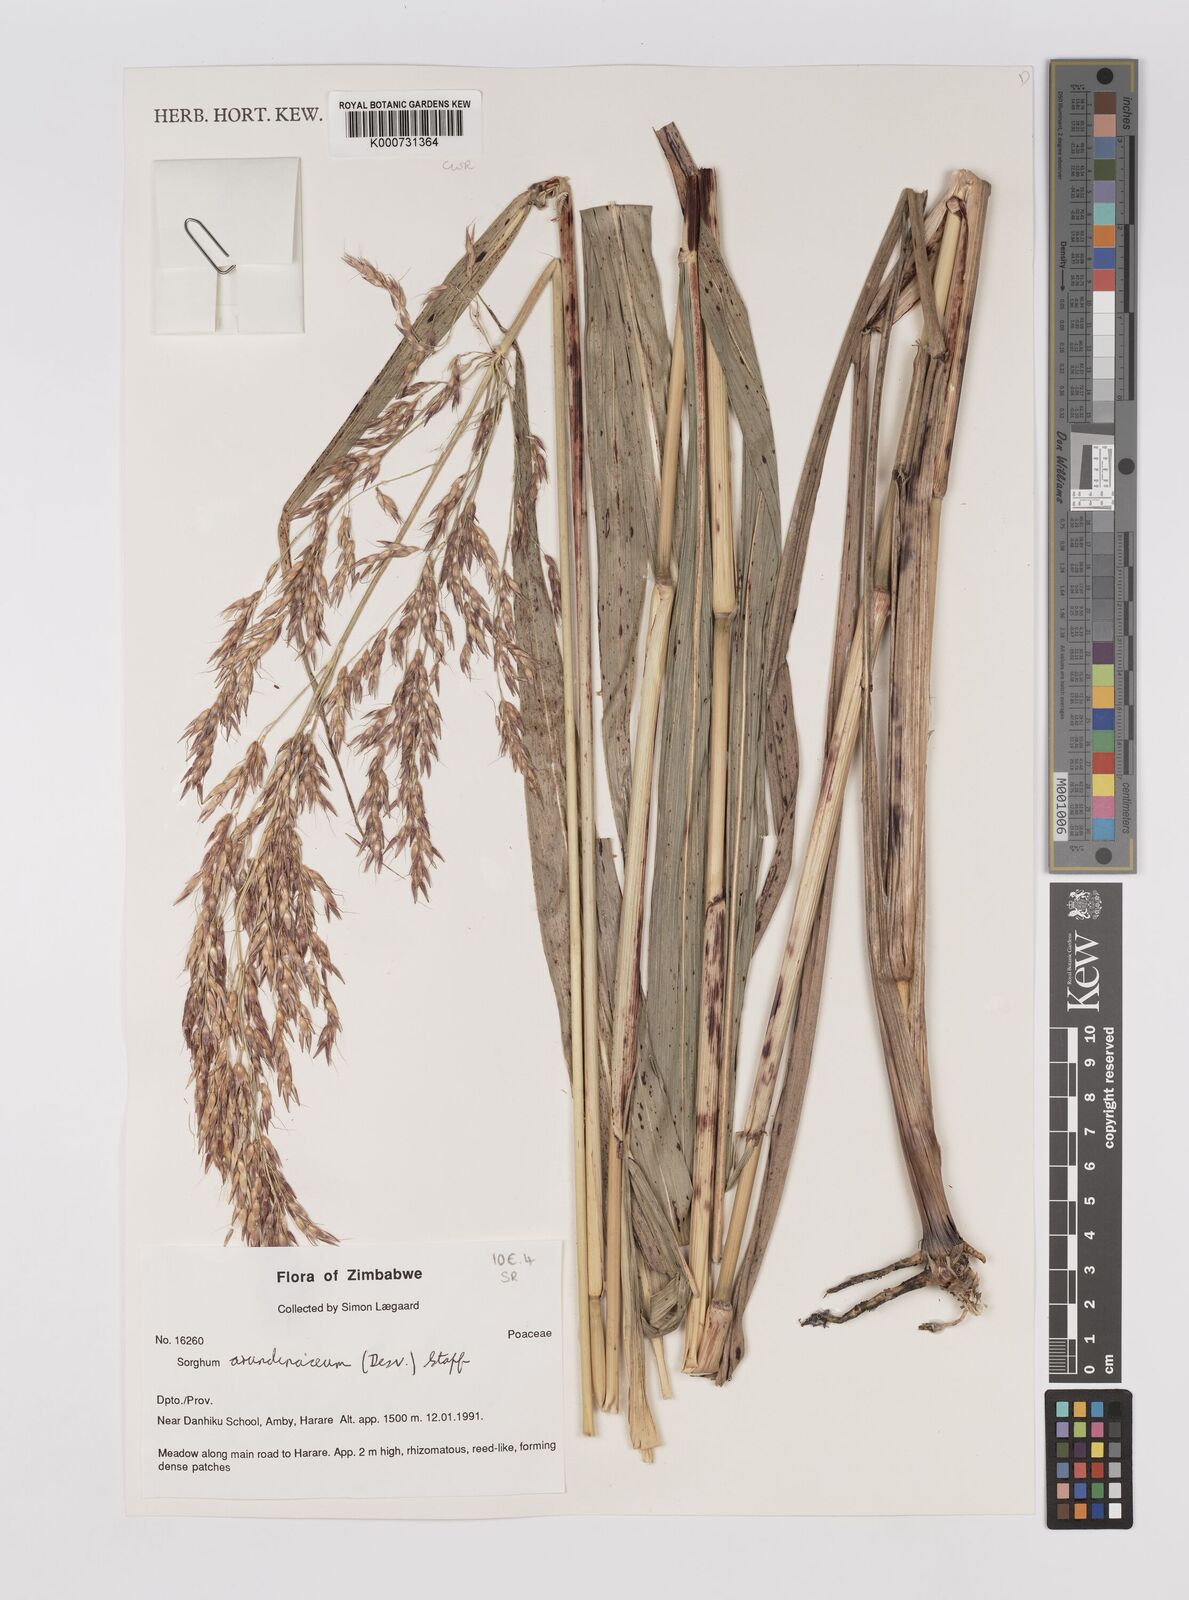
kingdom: Plantae
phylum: Tracheophyta
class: Liliopsida
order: Poales
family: Poaceae
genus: Sorghum
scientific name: Sorghum arundinaceum
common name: Sorghum
